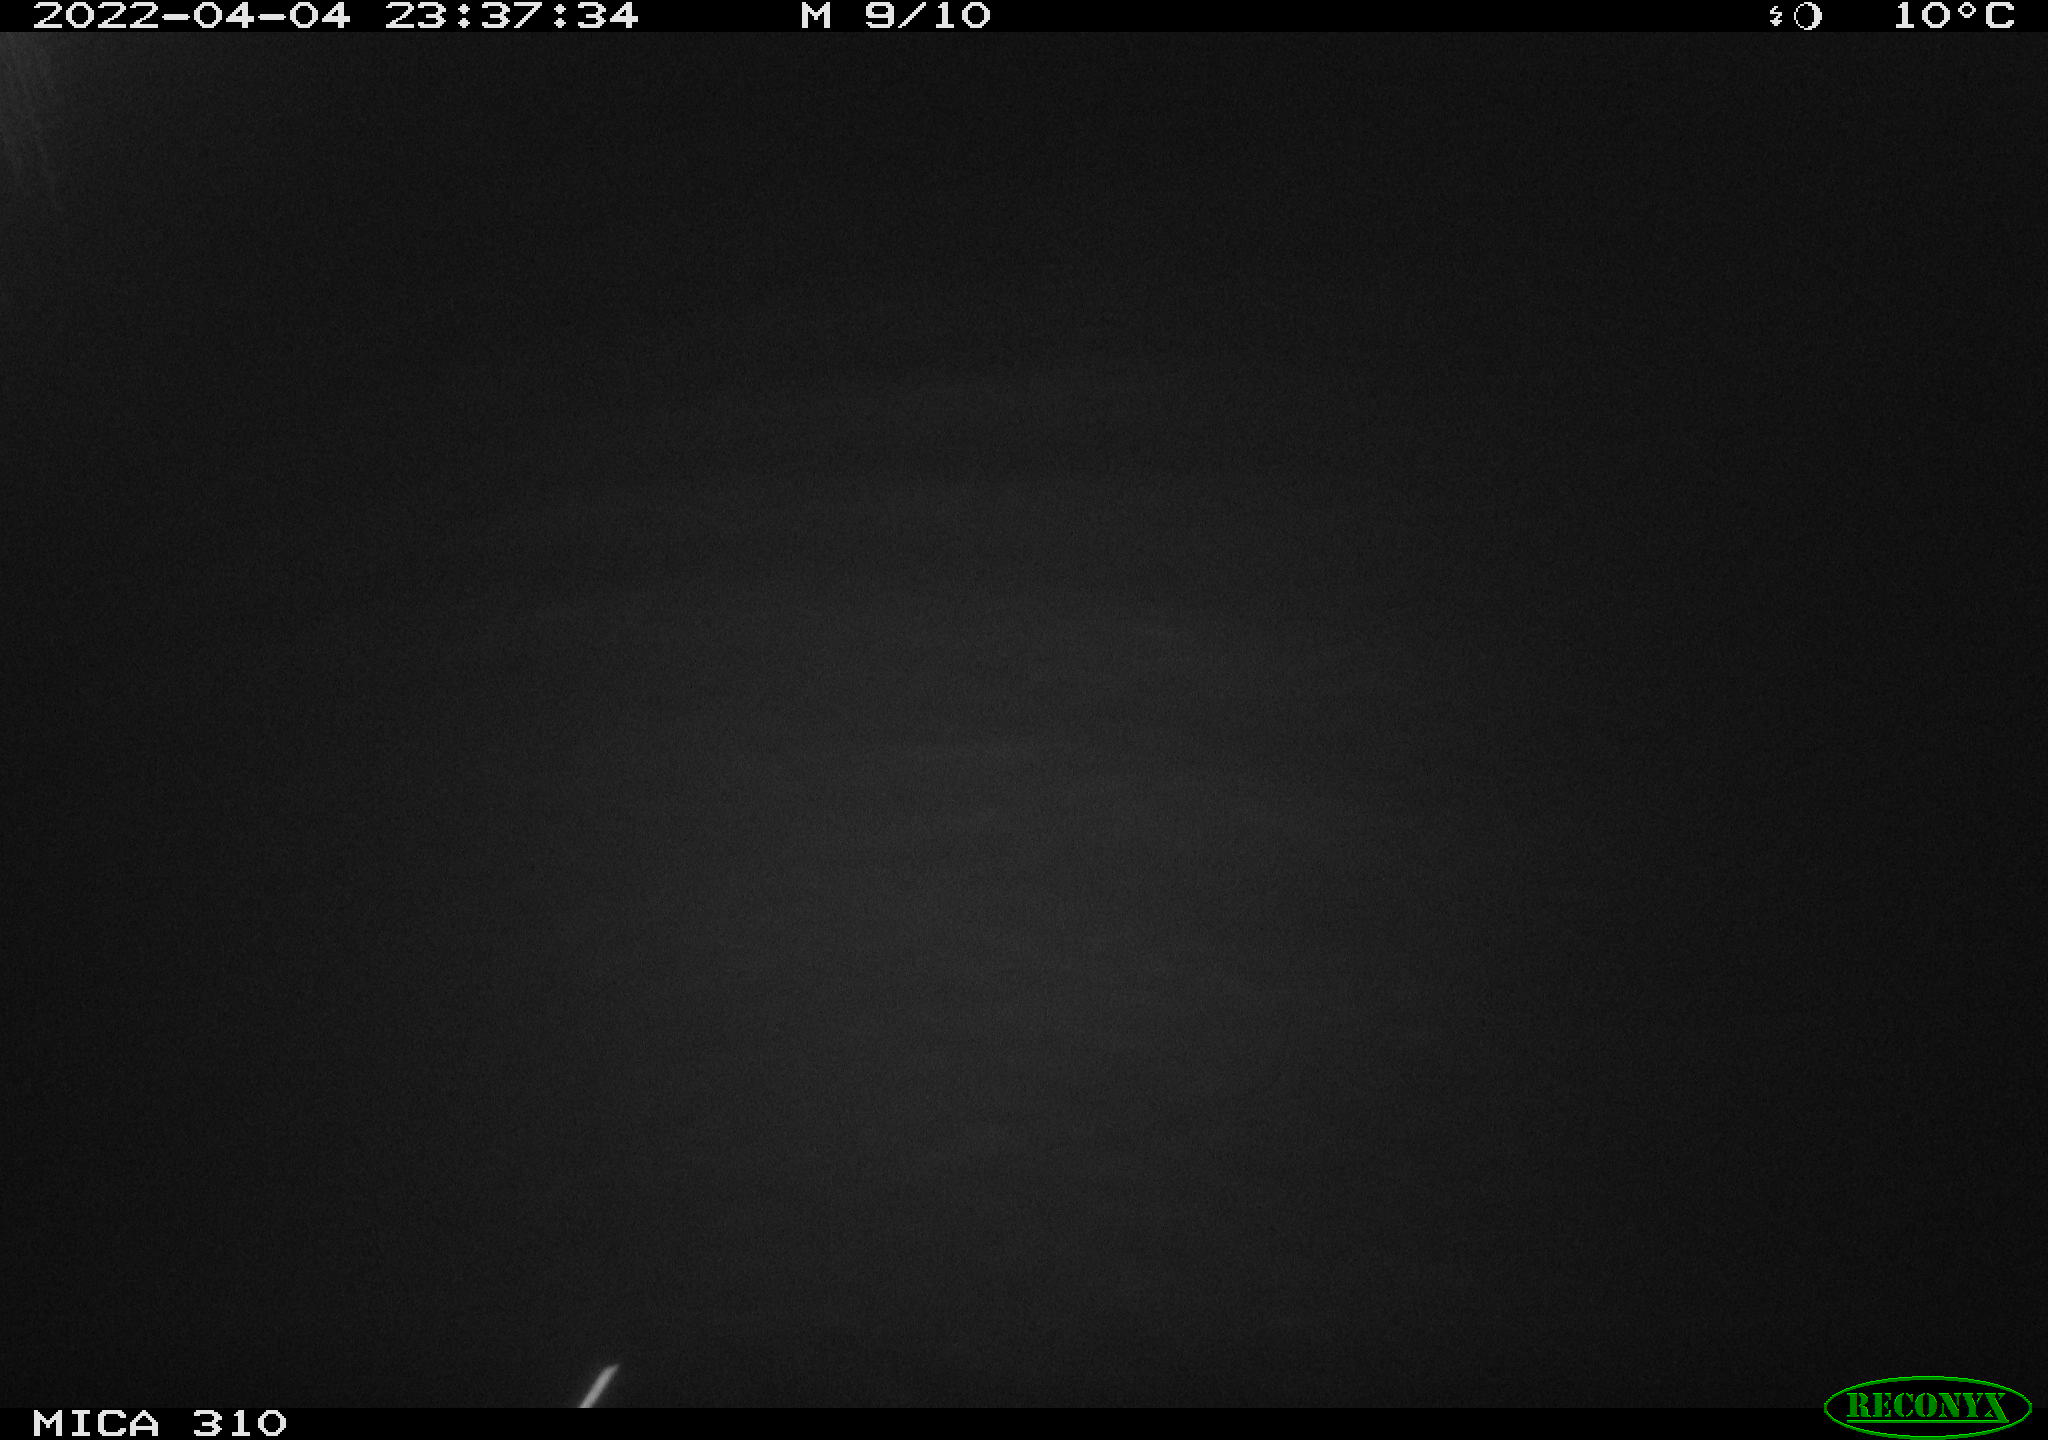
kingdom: Animalia
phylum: Chordata
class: Mammalia
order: Rodentia
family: Cricetidae
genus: Ondatra
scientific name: Ondatra zibethicus
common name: Muskrat
